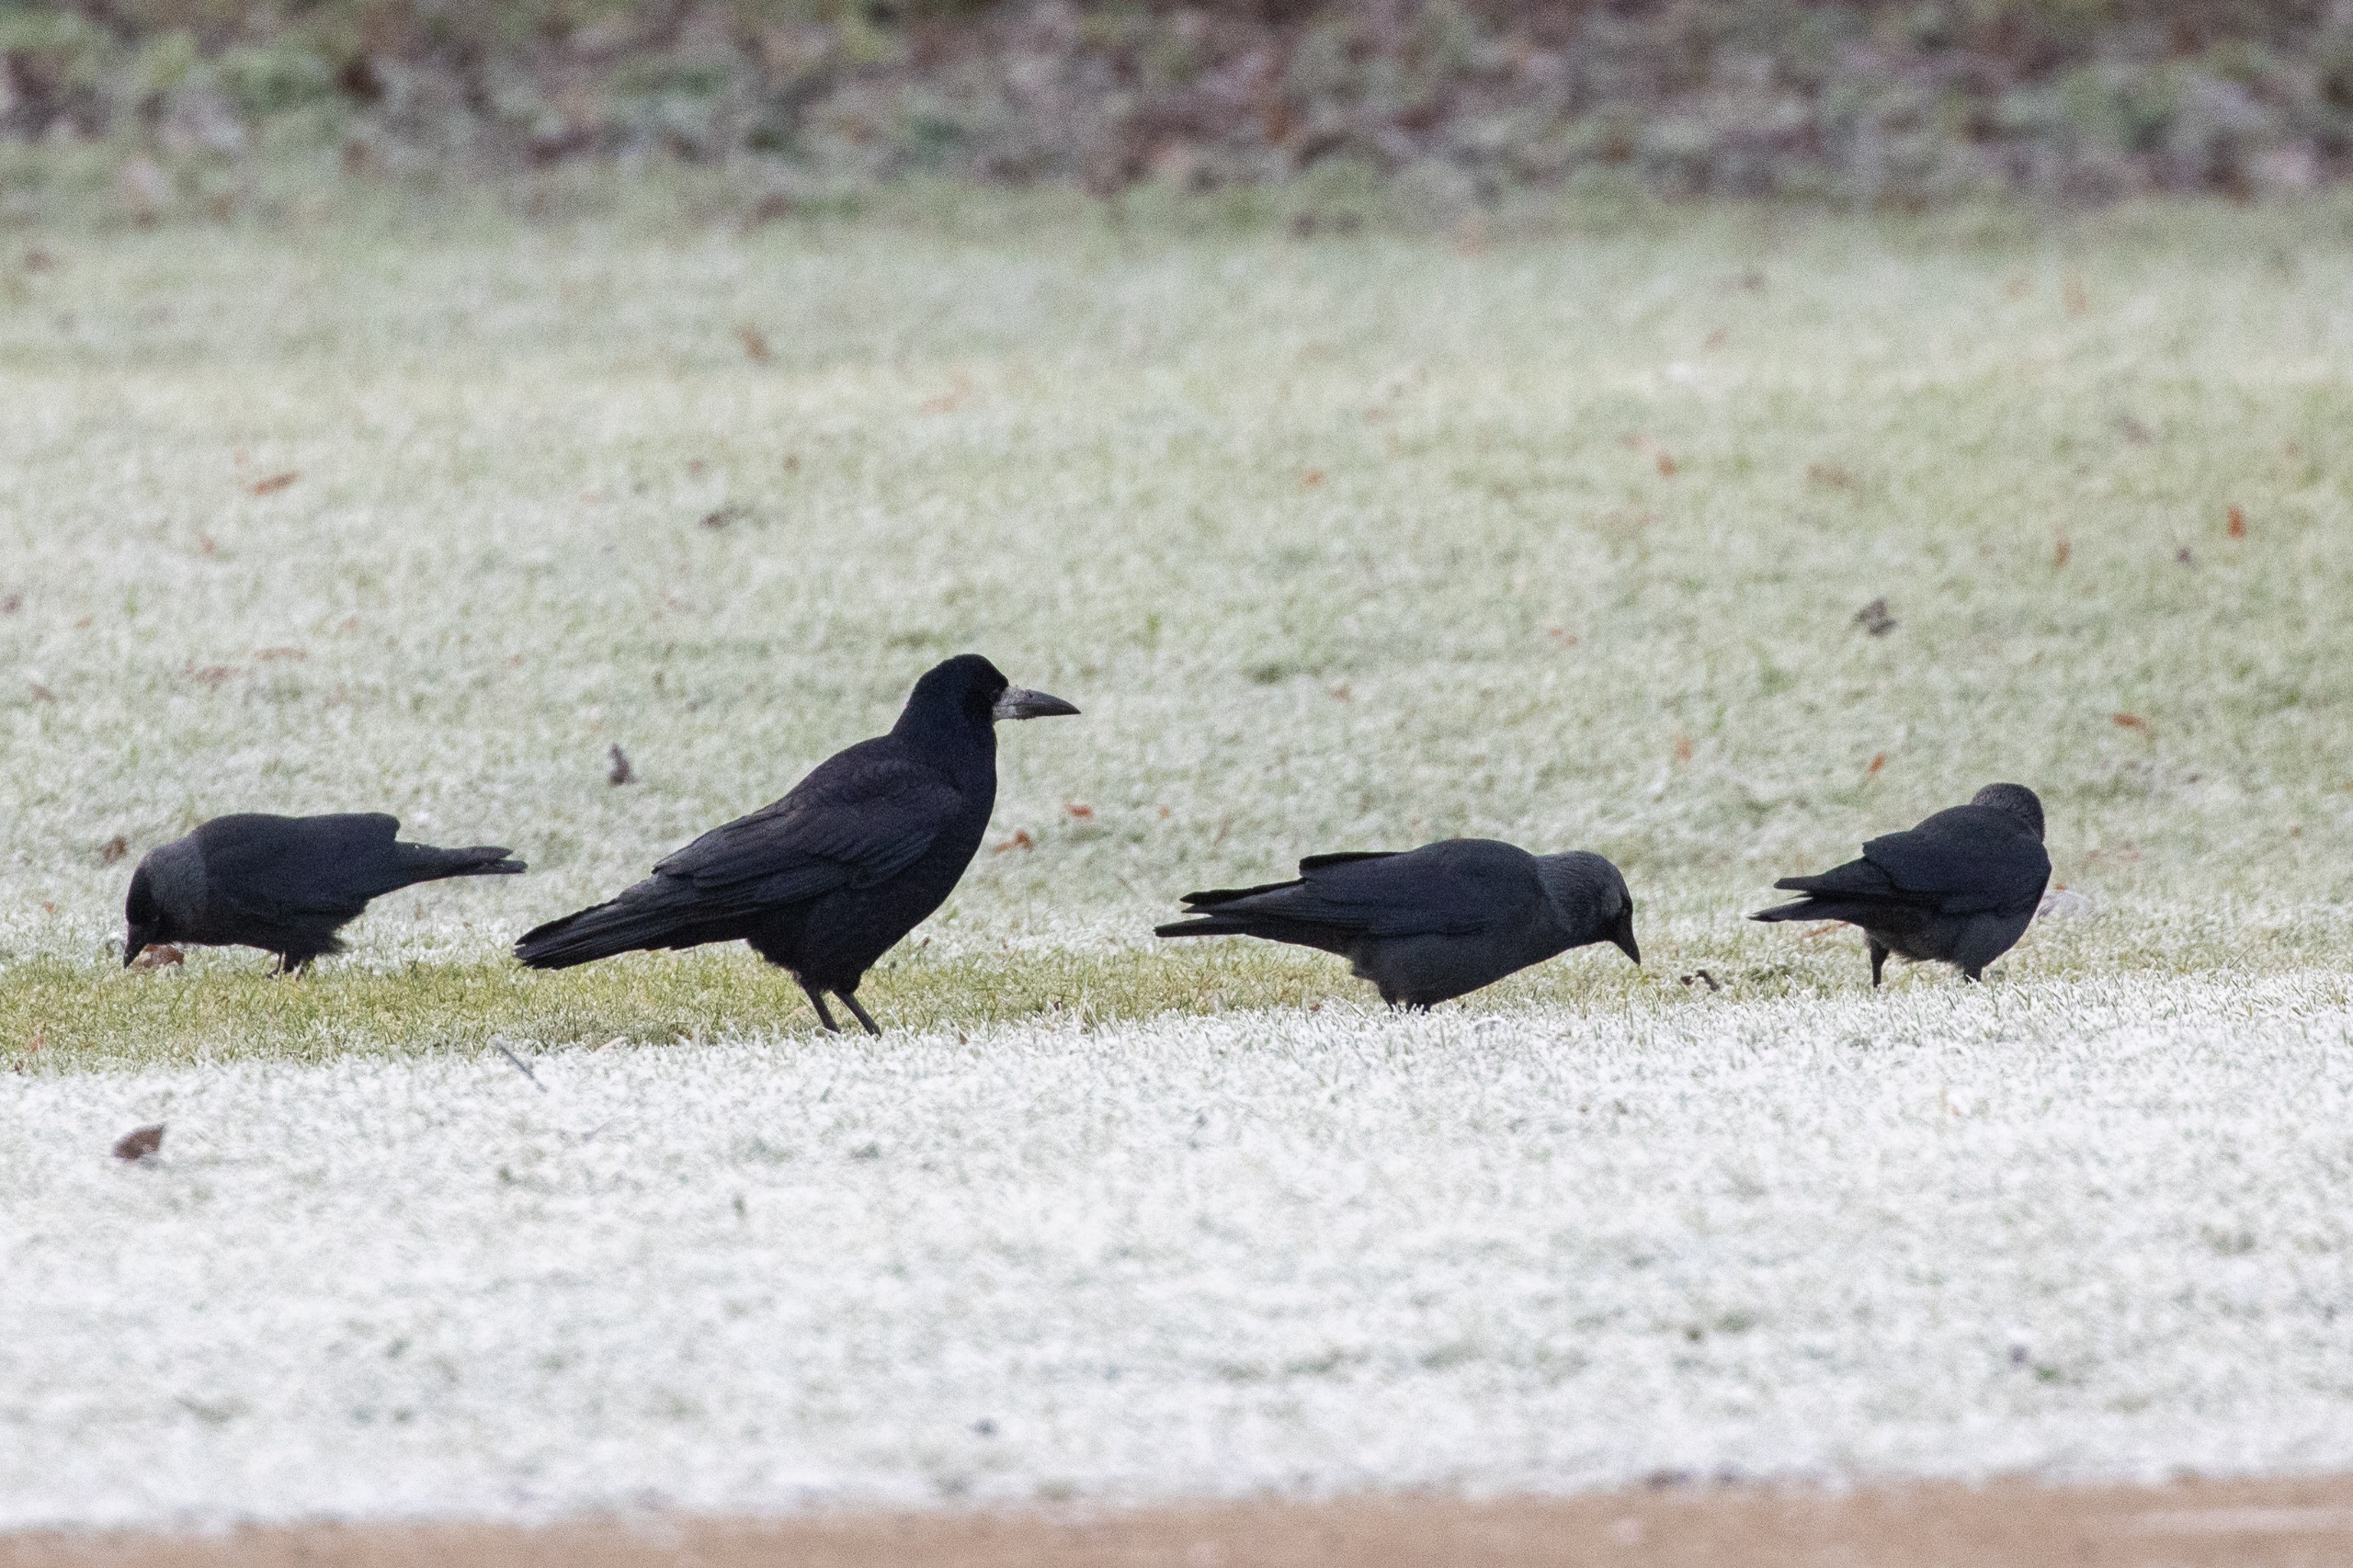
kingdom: Animalia
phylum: Chordata
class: Aves
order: Passeriformes
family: Corvidae
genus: Corvus
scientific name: Corvus frugilegus
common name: Råge
